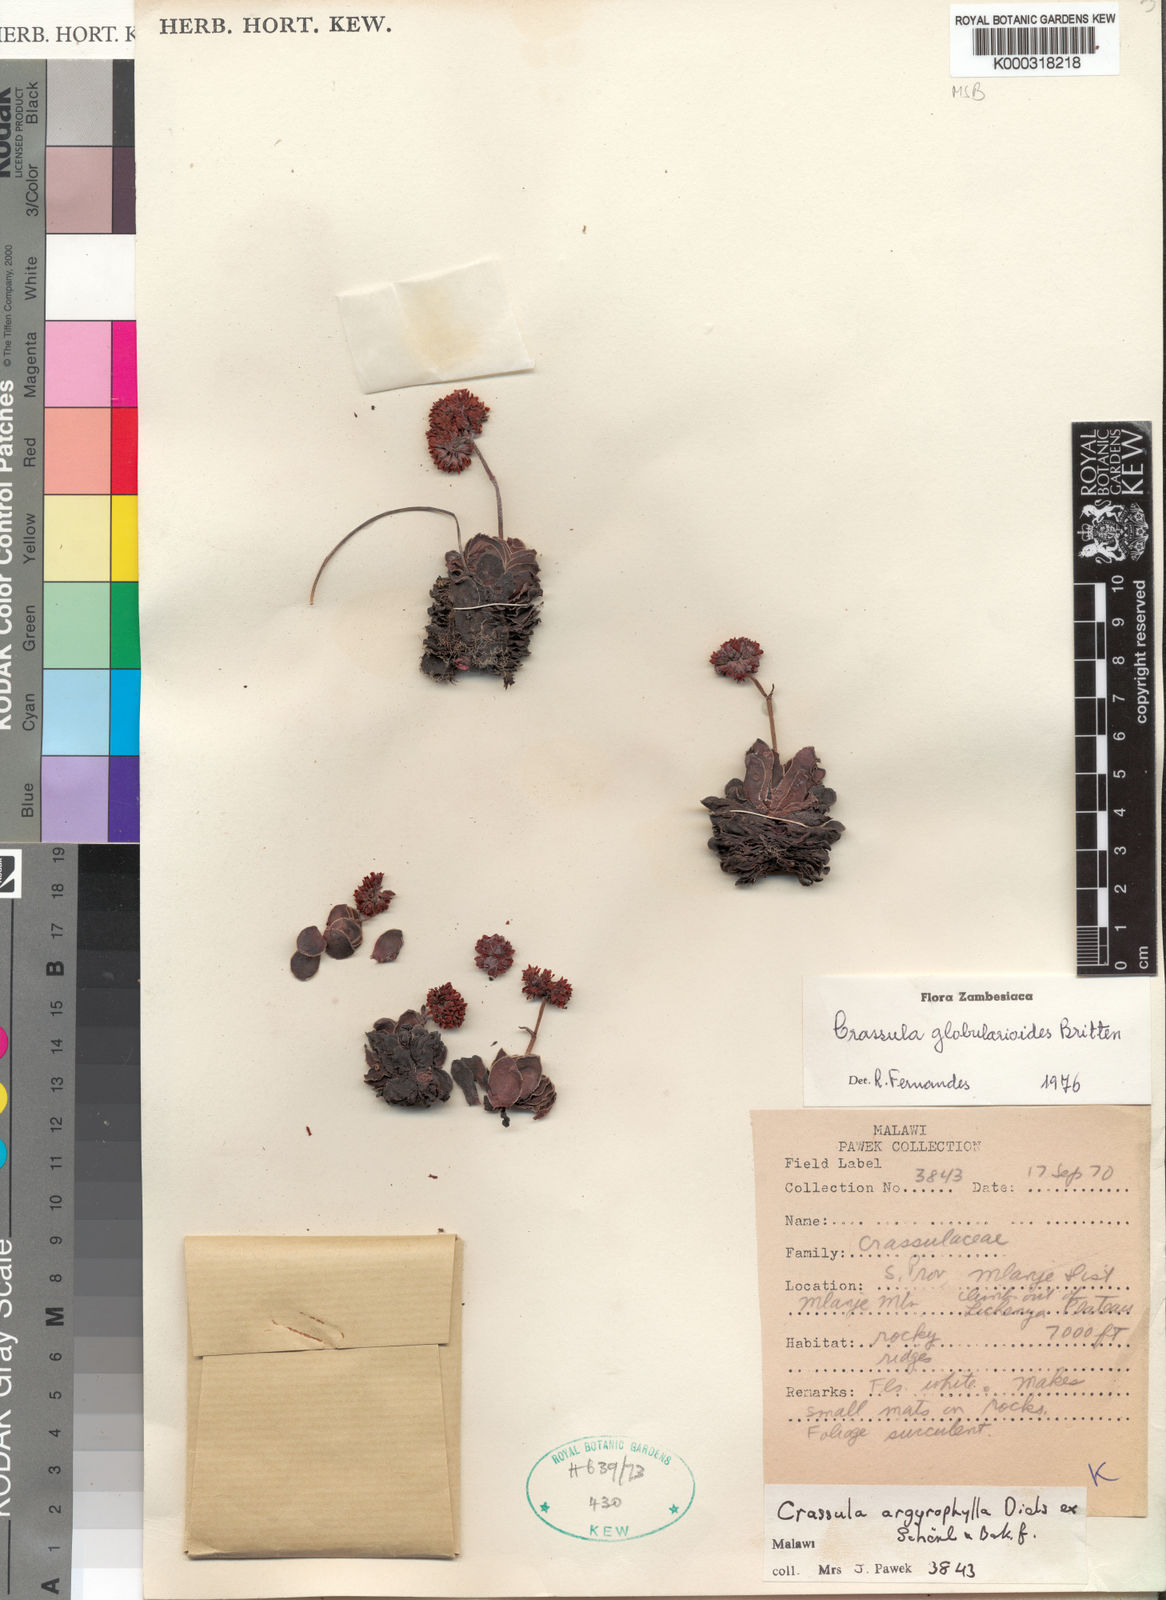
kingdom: Plantae
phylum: Tracheophyta
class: Magnoliopsida
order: Saxifragales
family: Crassulaceae
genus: Crassula
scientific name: Crassula globularioides
